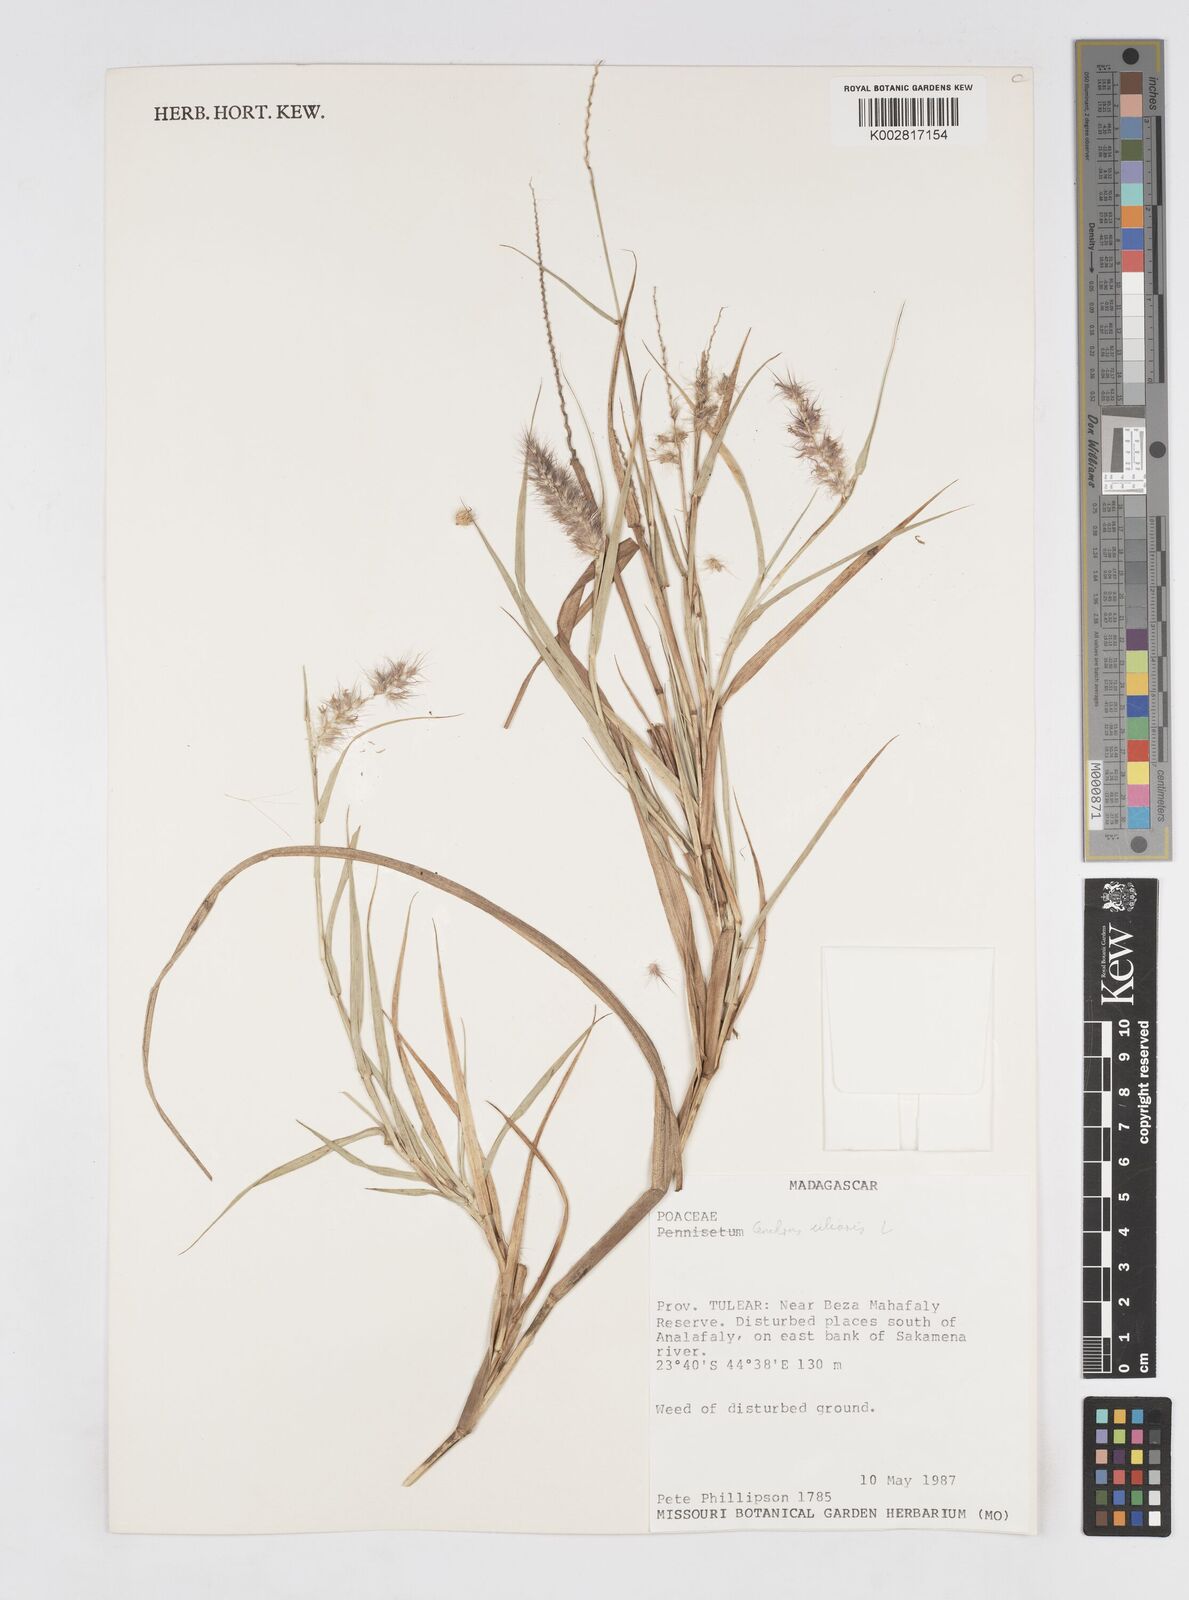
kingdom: Plantae
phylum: Tracheophyta
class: Liliopsida
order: Poales
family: Poaceae
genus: Cenchrus
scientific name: Cenchrus ciliaris
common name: Buffelgrass
